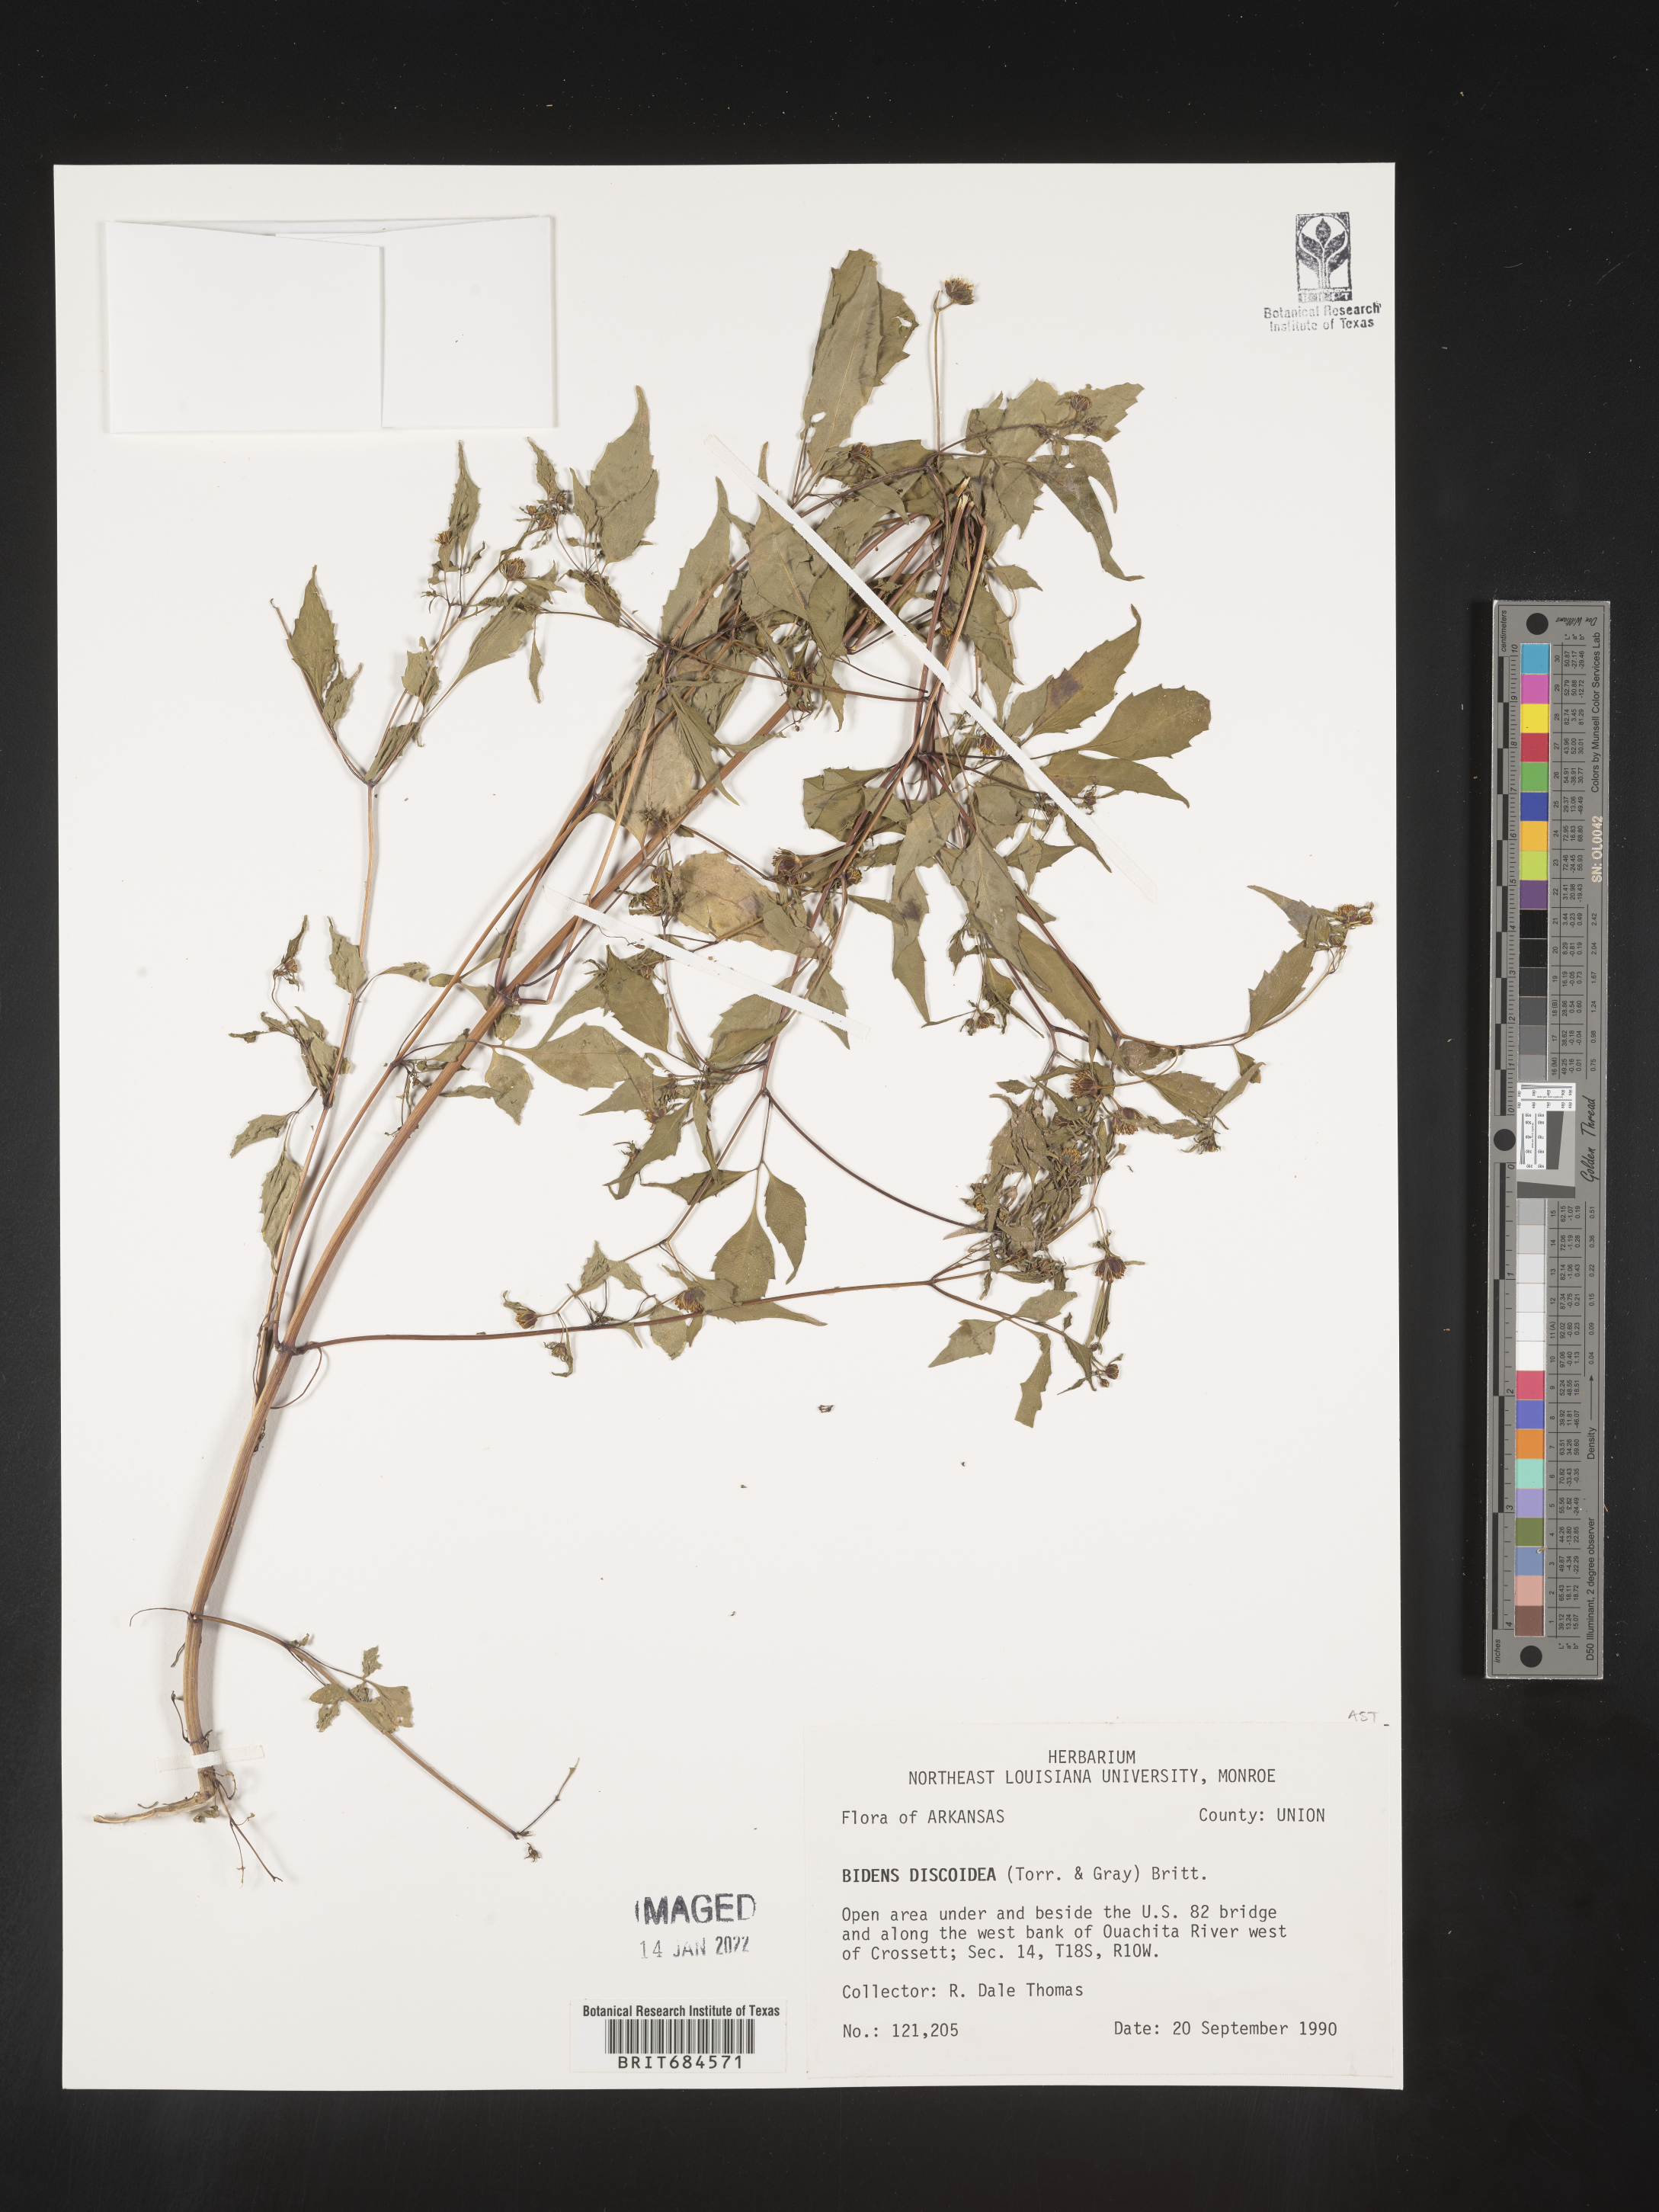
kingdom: Plantae
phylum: Tracheophyta
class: Magnoliopsida
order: Asterales
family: Asteraceae
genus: Bidens
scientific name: Bidens discoidea
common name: Discoide beggarticks
